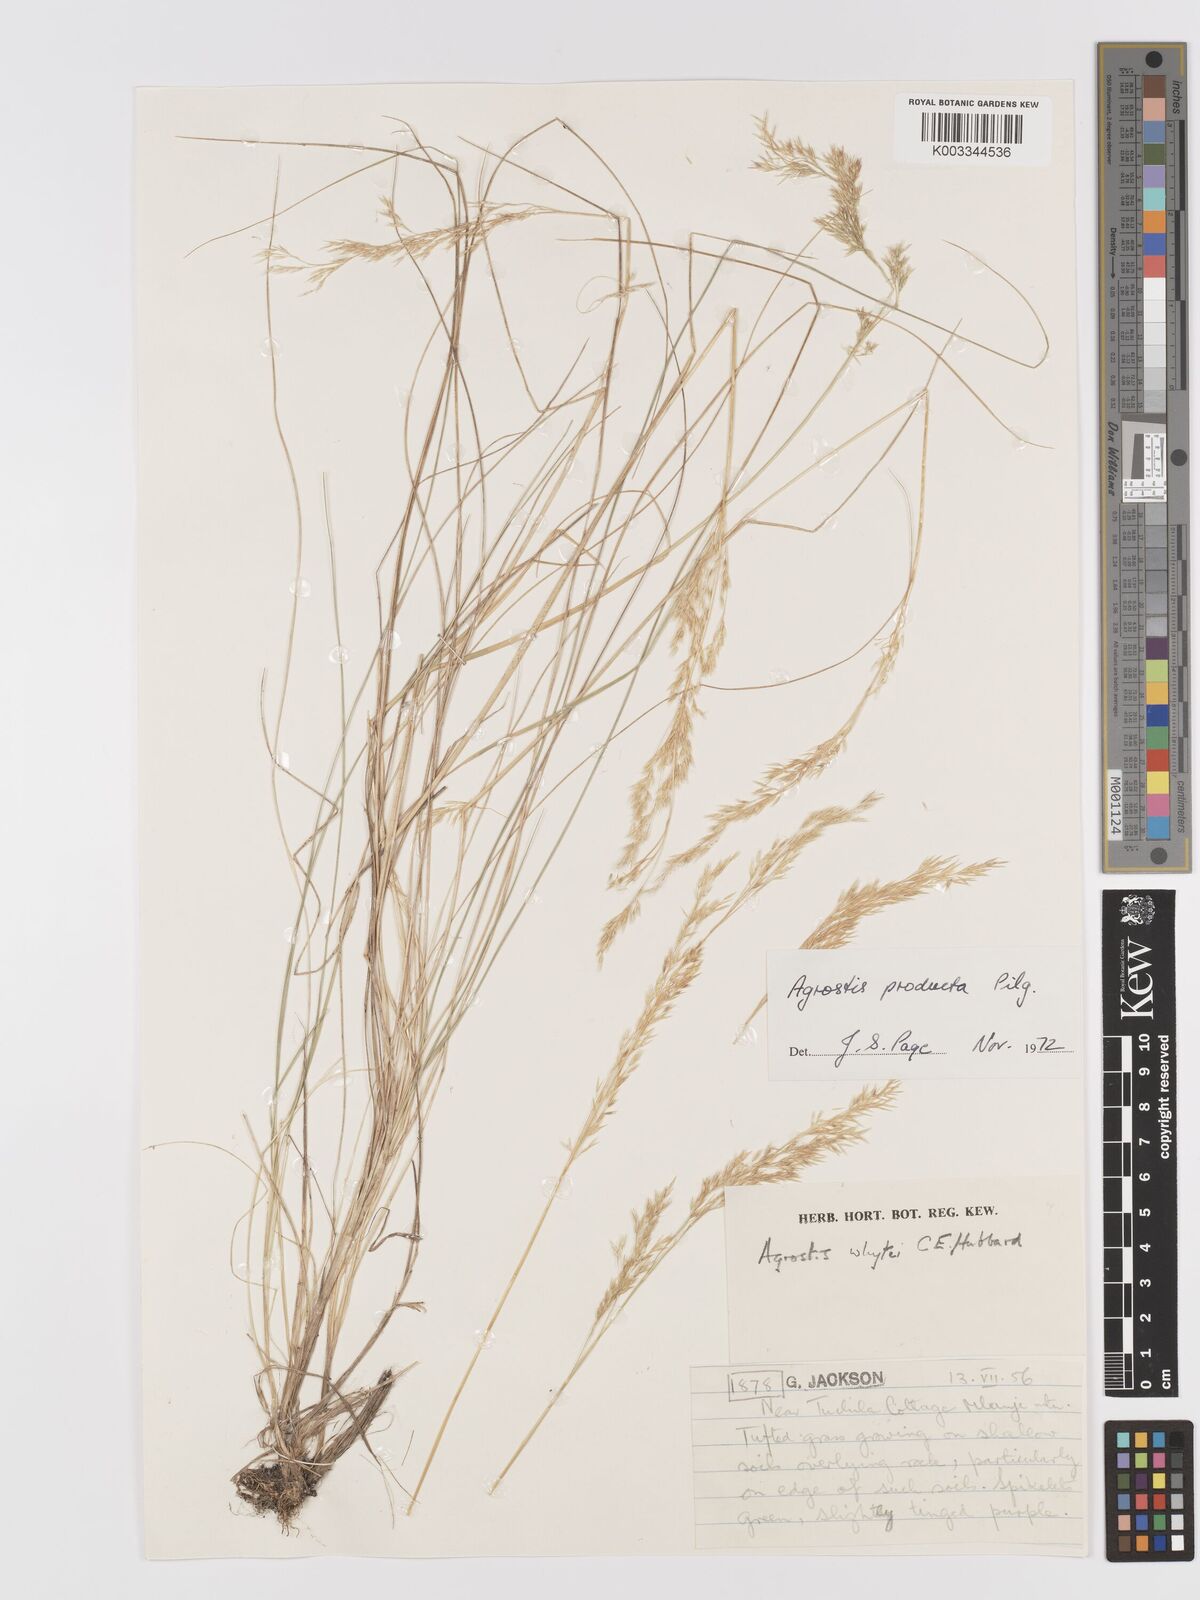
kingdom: Plantae
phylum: Tracheophyta
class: Liliopsida
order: Poales
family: Poaceae
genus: Agrostis
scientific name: Agrostis producta
